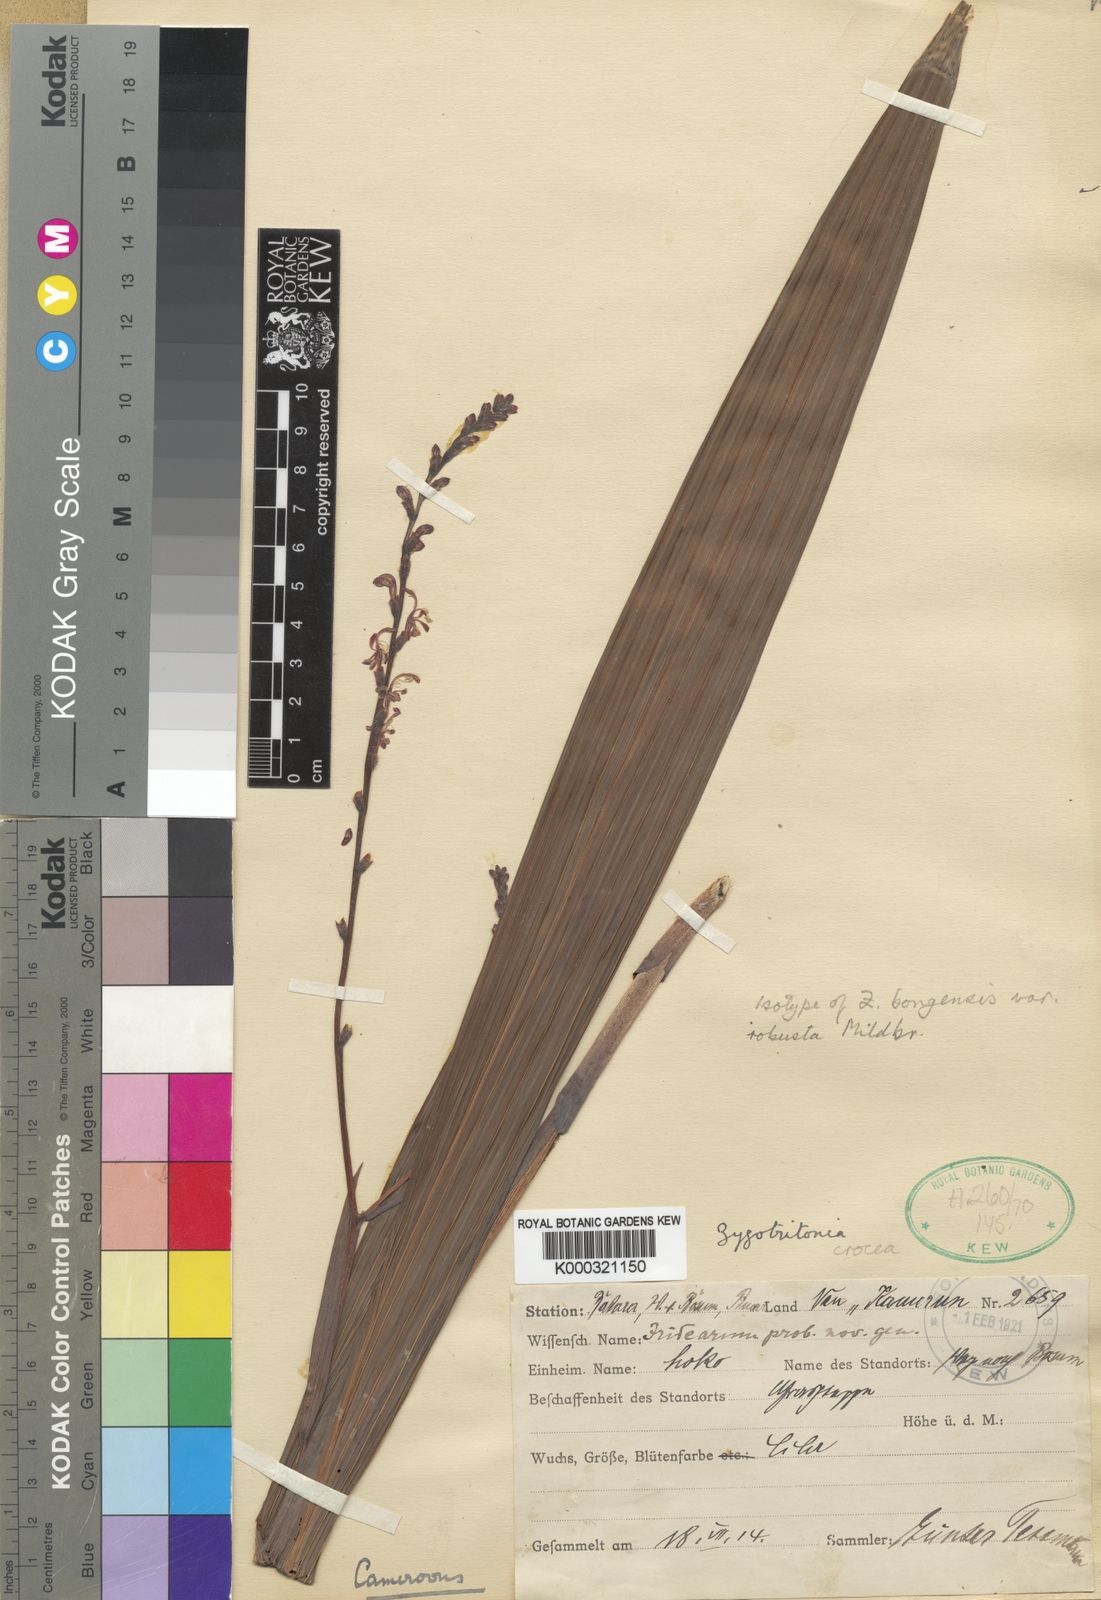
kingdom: Plantae
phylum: Tracheophyta
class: Liliopsida
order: Asparagales
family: Iridaceae
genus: Zygotritonia
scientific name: Zygotritonia bongensis
